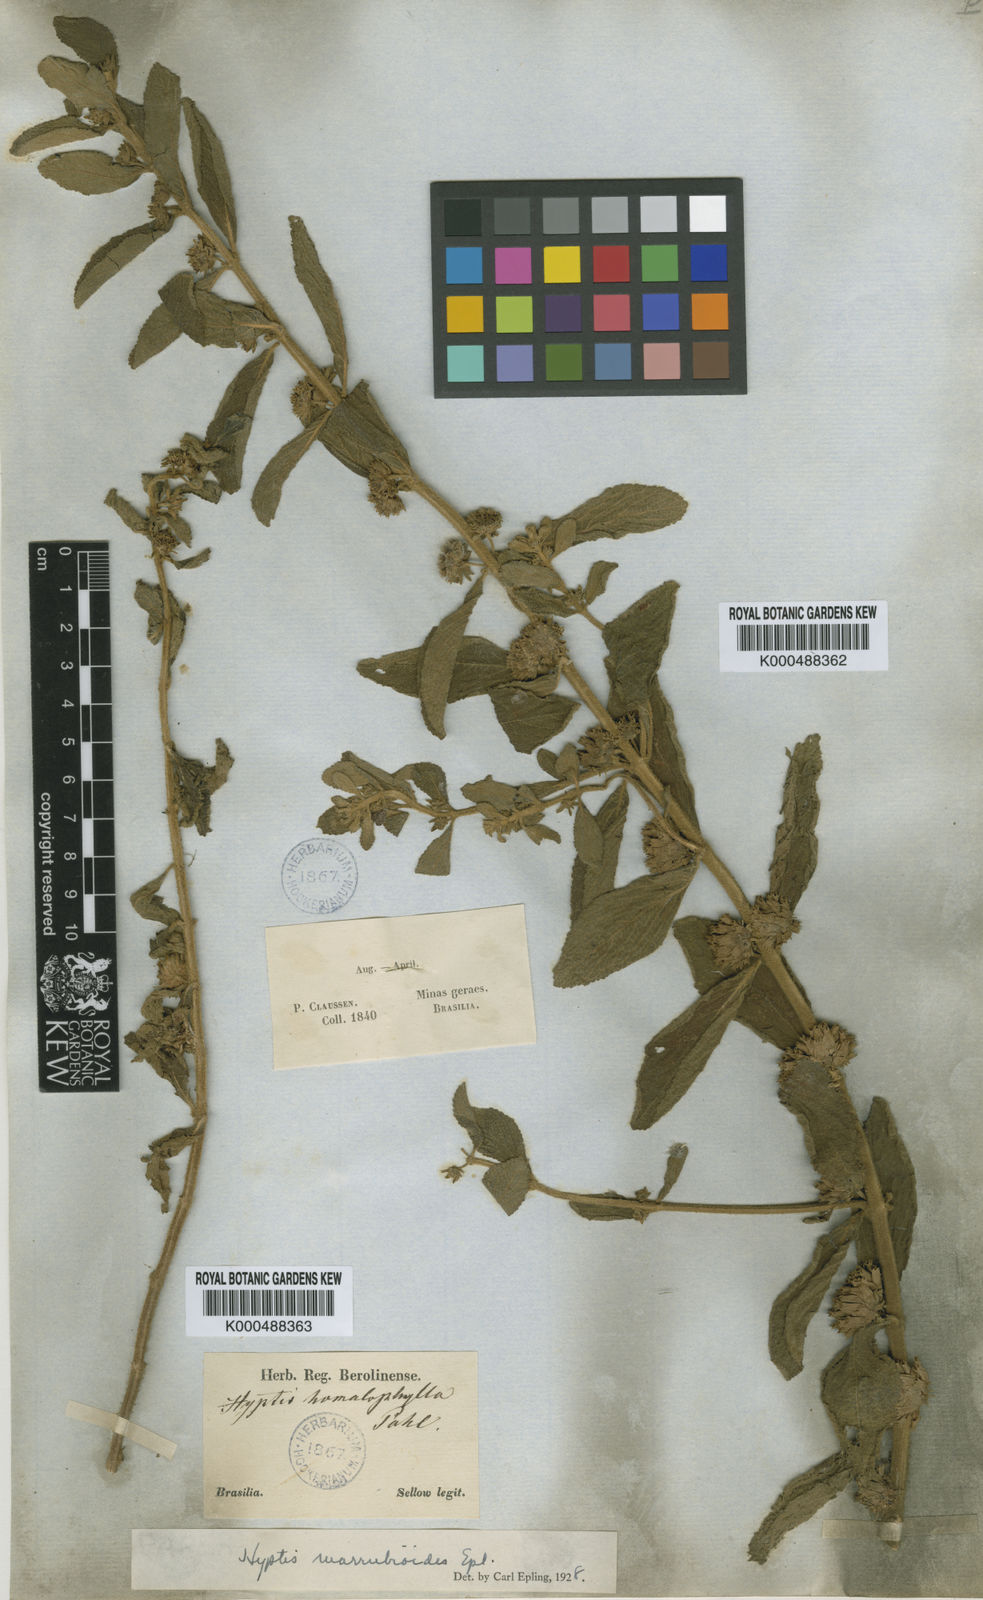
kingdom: Plantae
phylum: Tracheophyta
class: Magnoliopsida
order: Lamiales
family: Lamiaceae
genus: Hyptis
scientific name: Hyptis marrubioides
